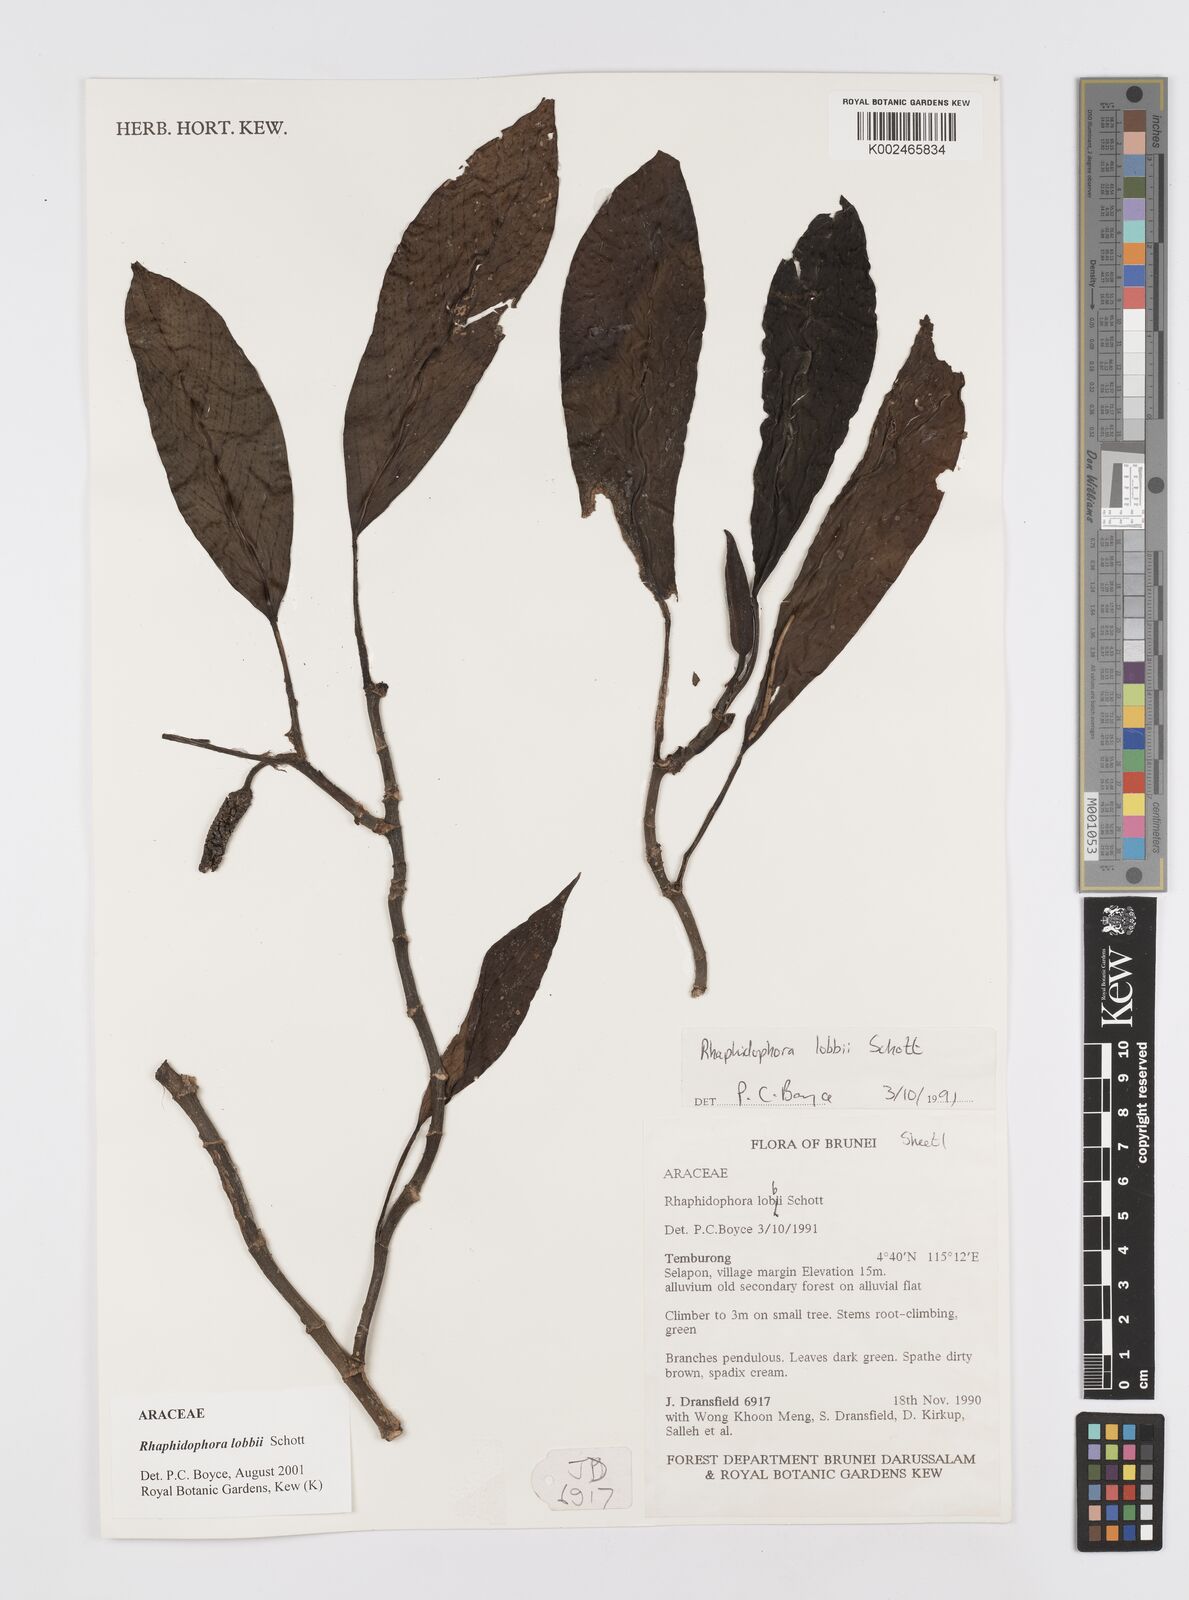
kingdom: Plantae
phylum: Tracheophyta
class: Liliopsida
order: Alismatales
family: Araceae
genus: Rhaphidophora
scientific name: Rhaphidophora lobbii
